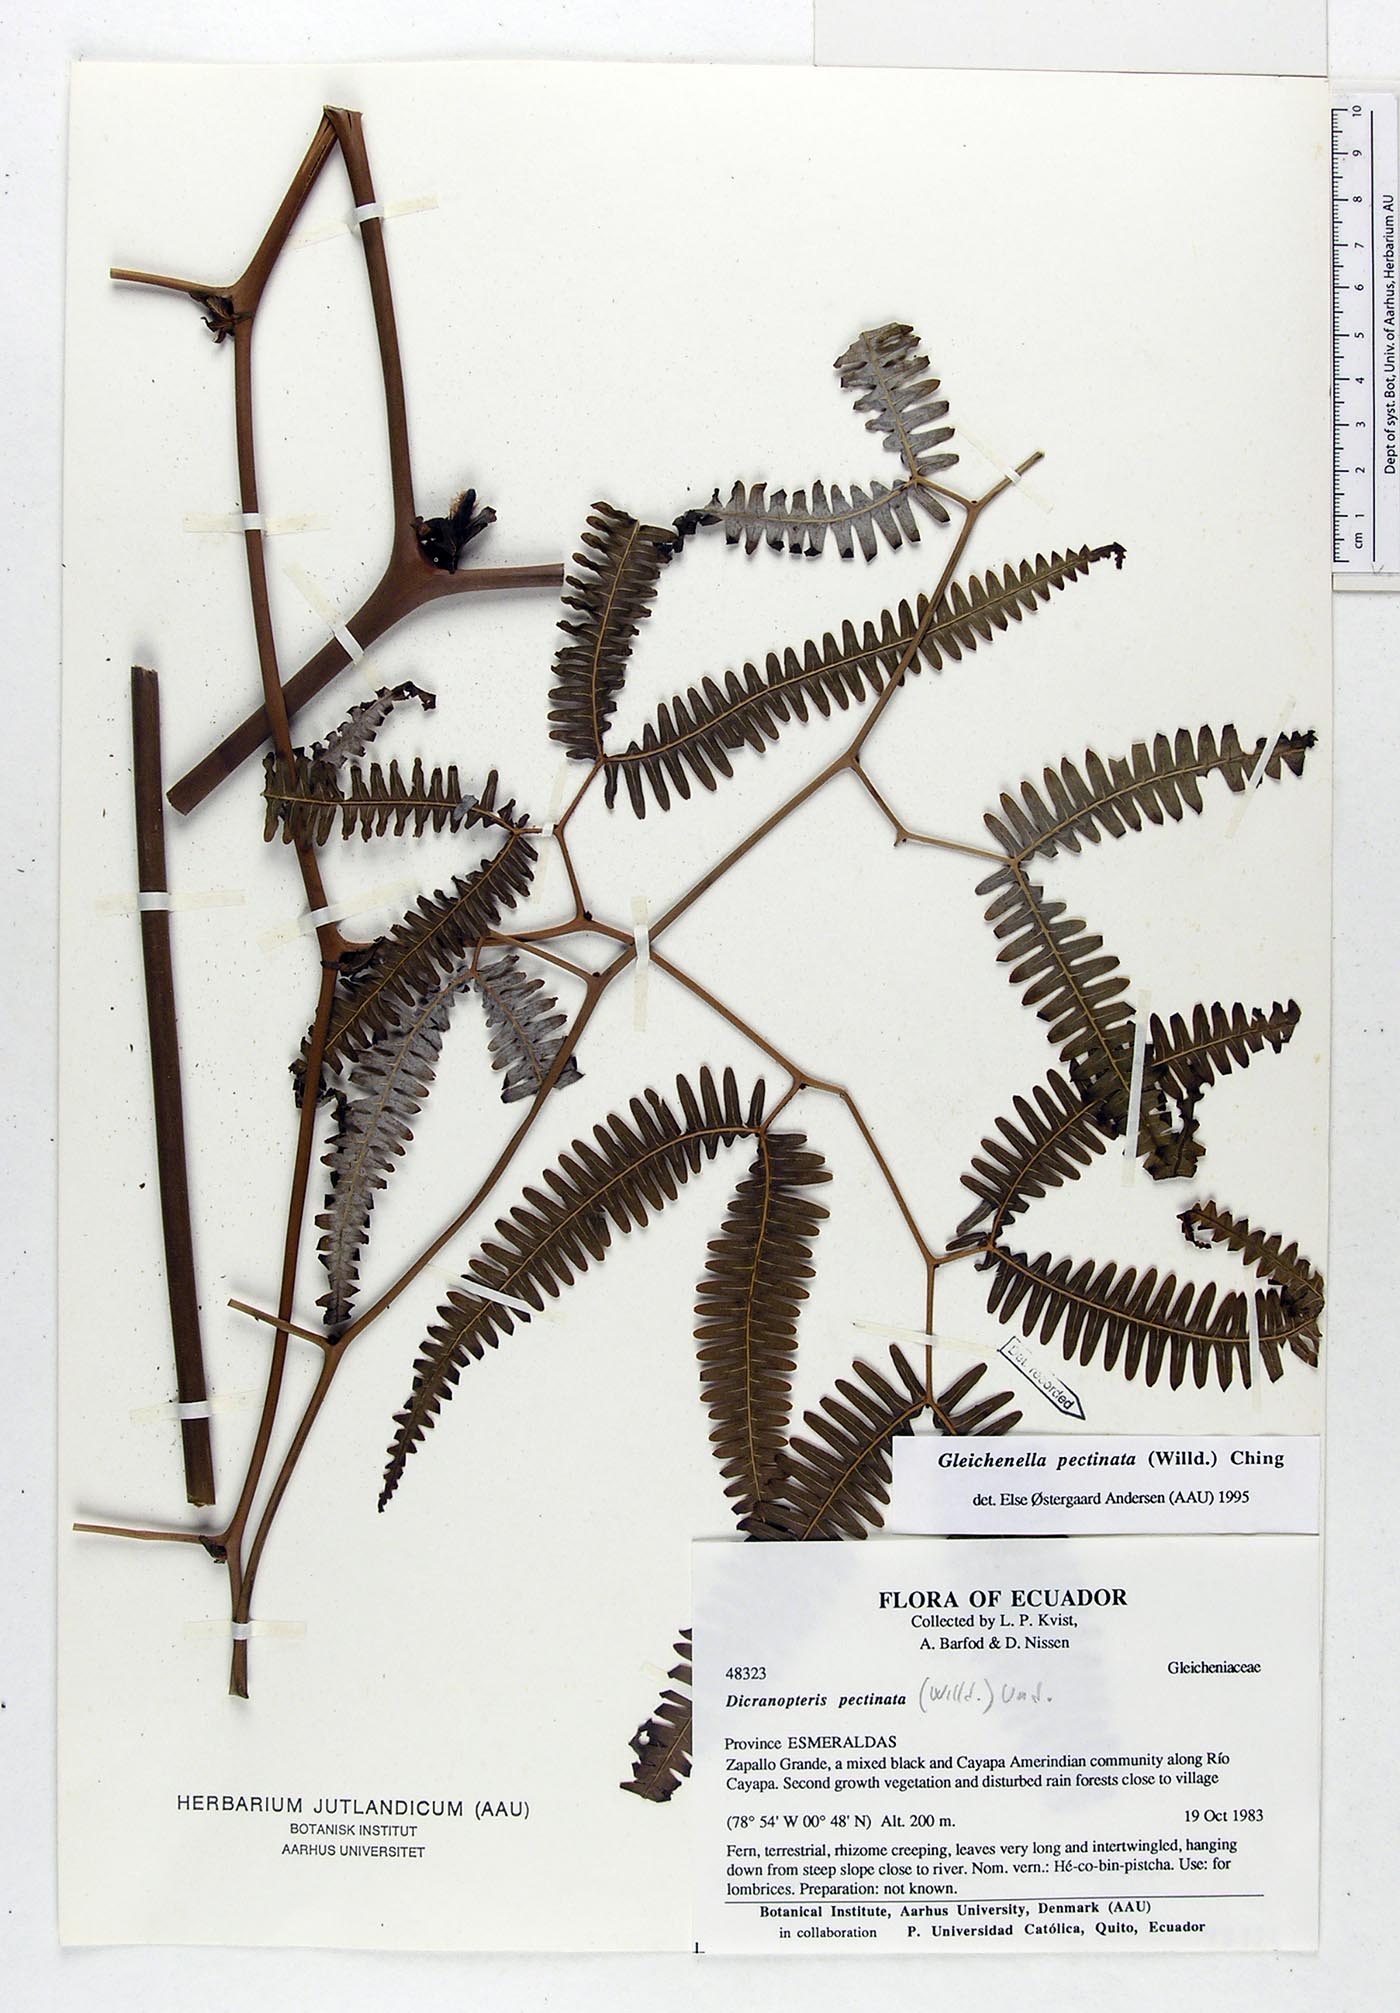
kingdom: Plantae
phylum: Tracheophyta
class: Polypodiopsida
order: Gleicheniales
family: Gleicheniaceae
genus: Gleichenella
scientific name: Gleichenella pectinata
